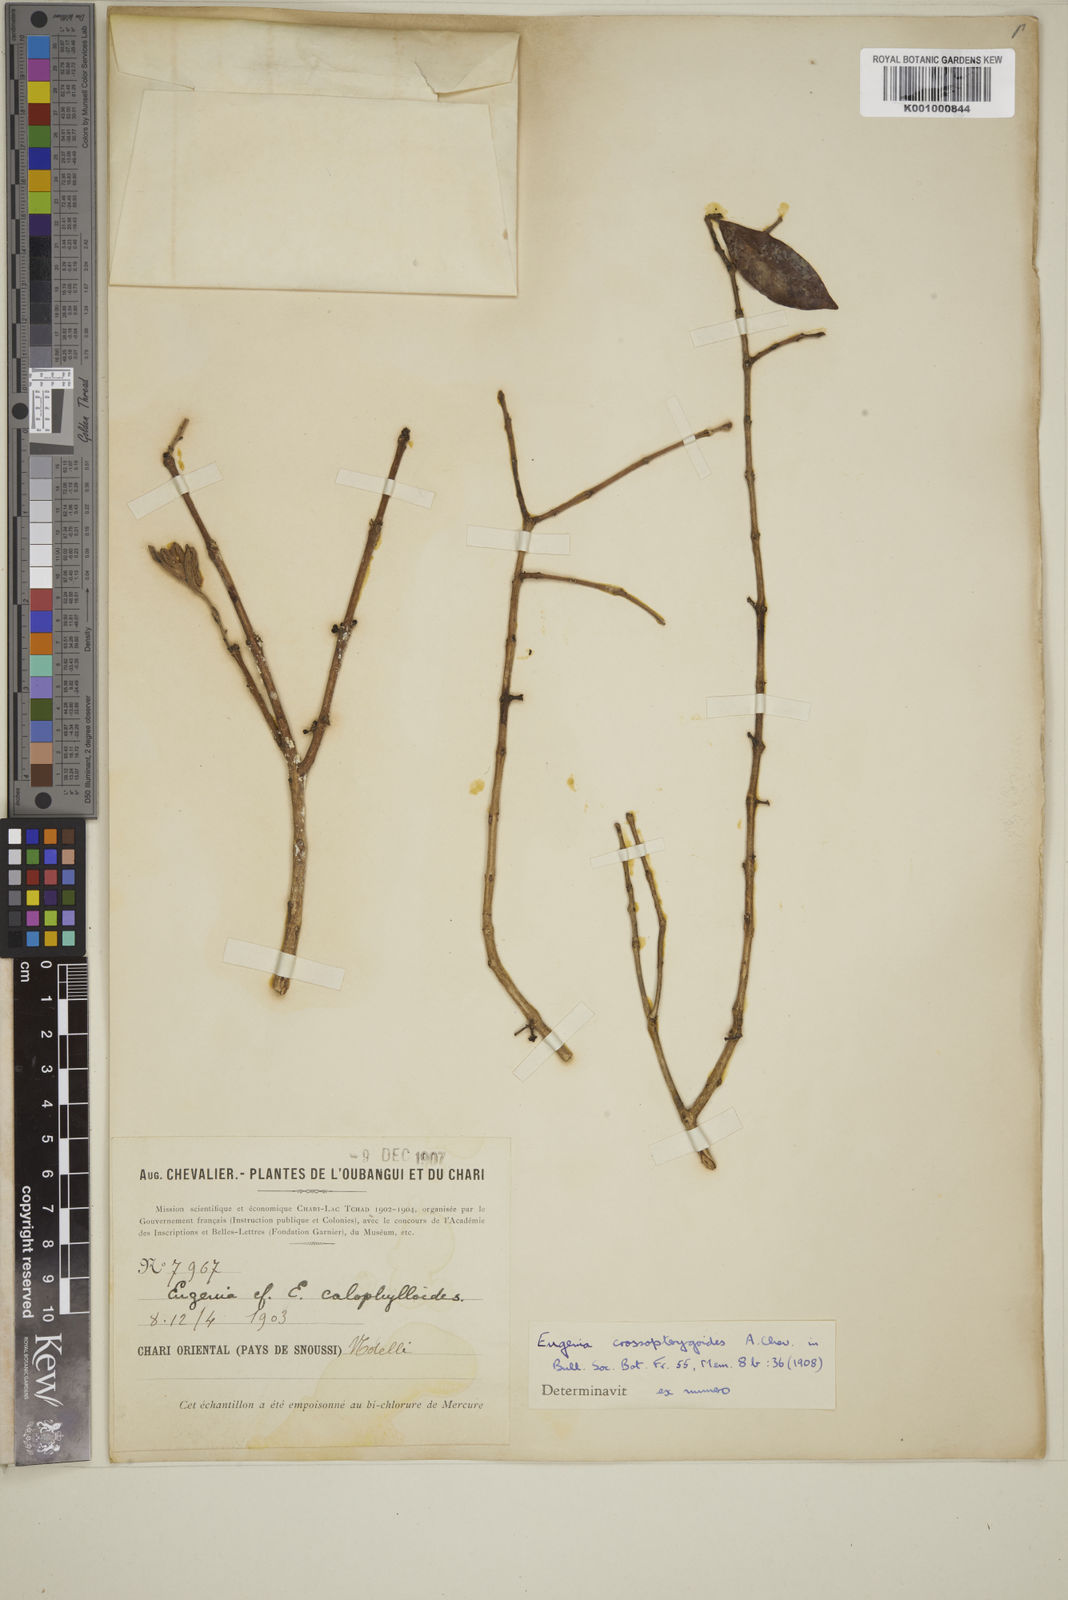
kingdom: Plantae
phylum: Tracheophyta
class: Magnoliopsida
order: Myrtales
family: Myrtaceae
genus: Eugenia
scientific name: Eugenia crossopterygoides
